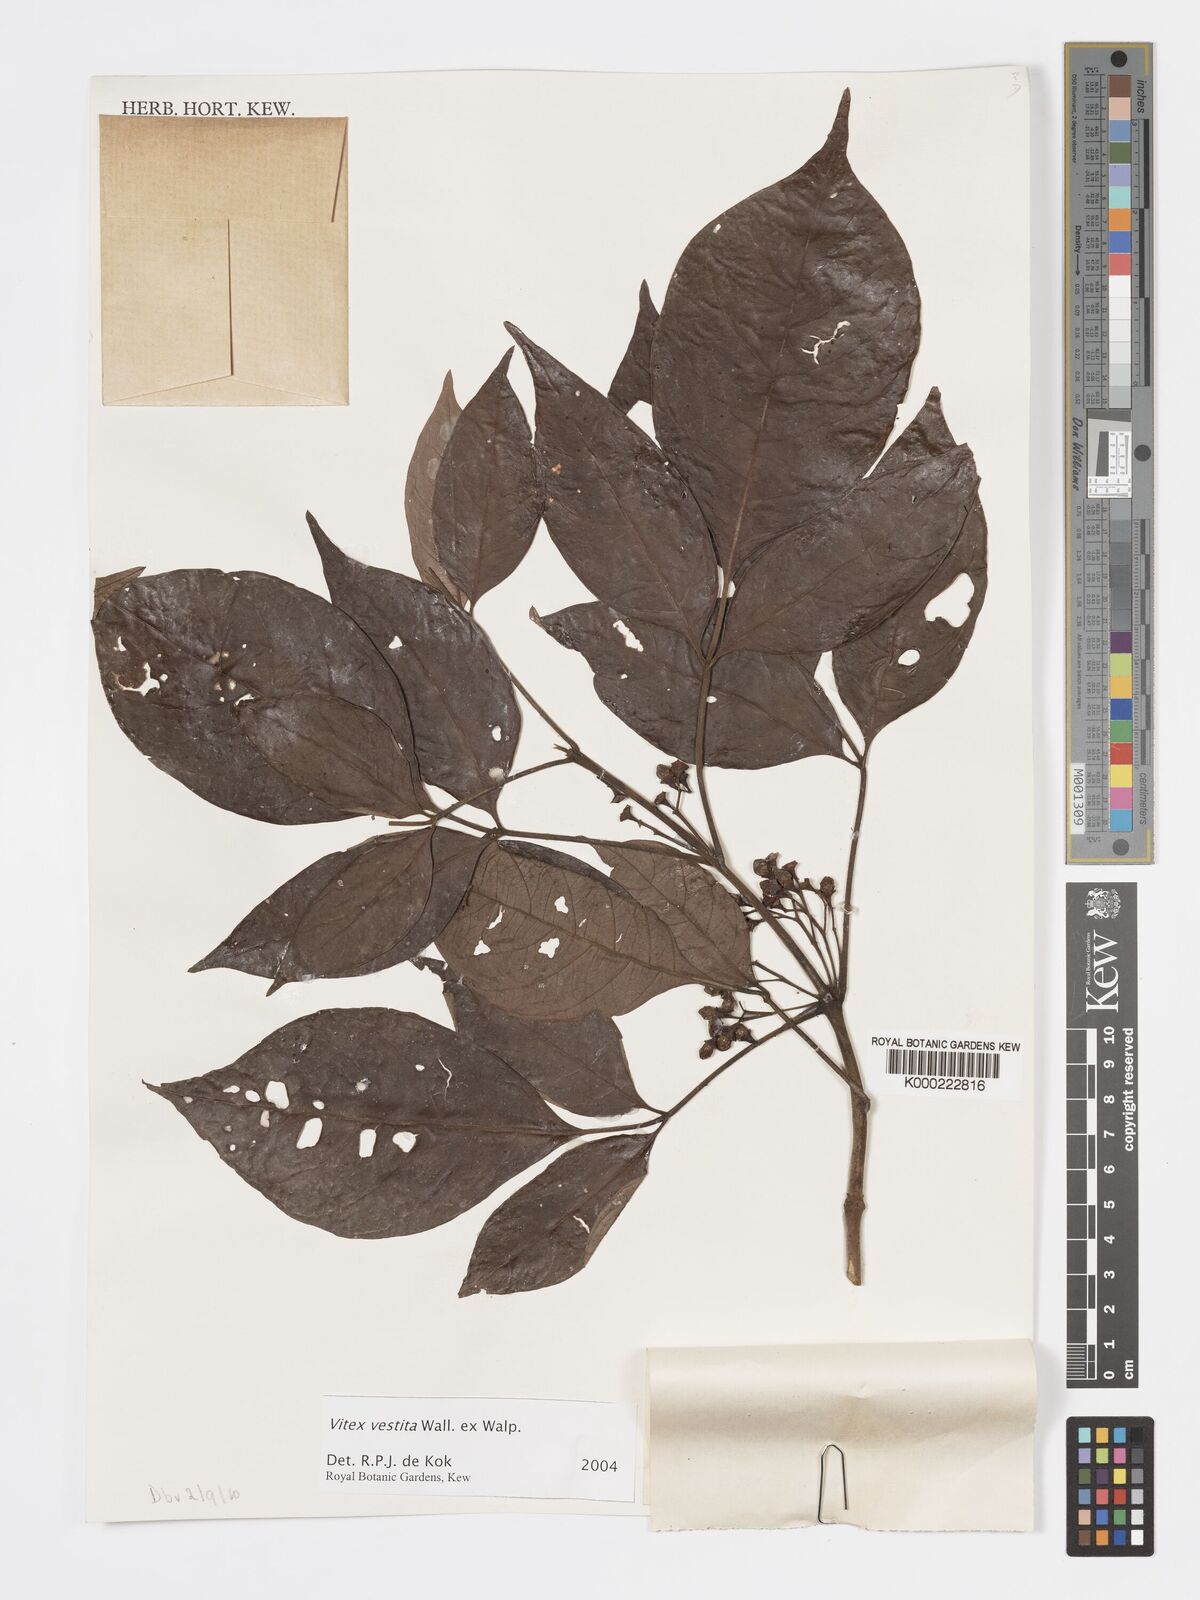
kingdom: Plantae
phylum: Tracheophyta
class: Magnoliopsida
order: Lamiales
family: Lamiaceae
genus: Vitex
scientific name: Vitex vestita
